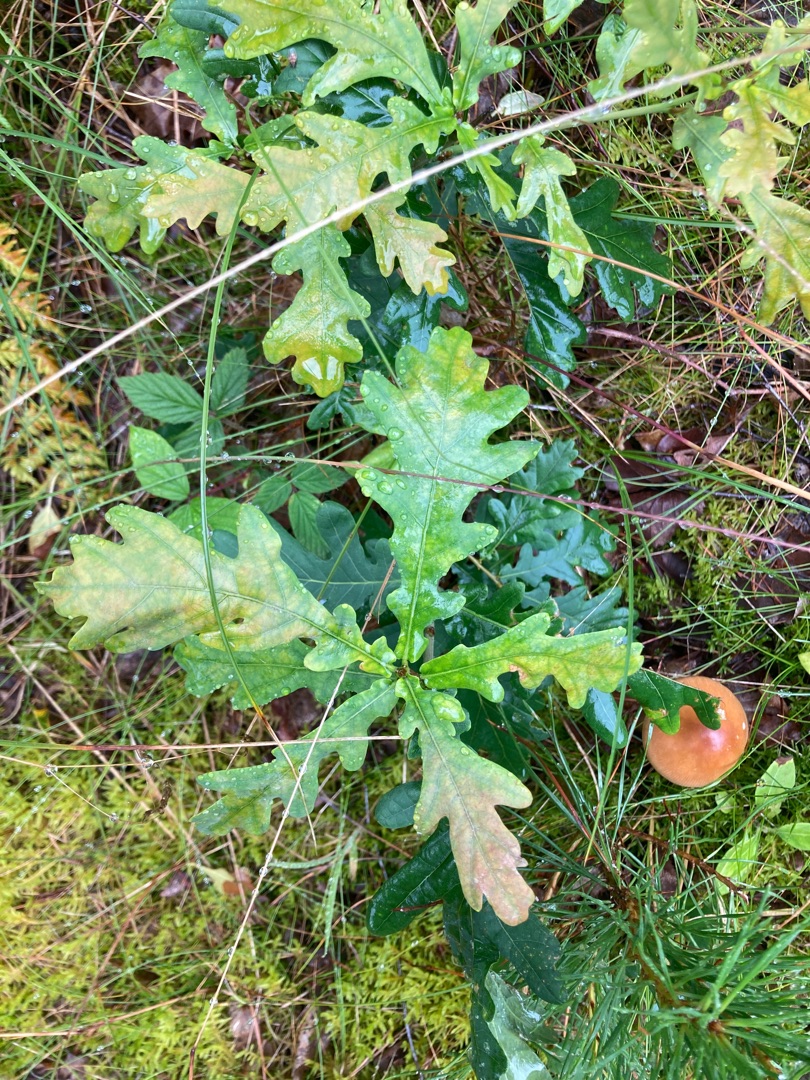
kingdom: Plantae
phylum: Tracheophyta
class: Magnoliopsida
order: Fagales
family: Fagaceae
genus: Quercus
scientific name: Quercus robur
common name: Stilk-eg/almindelig eg
